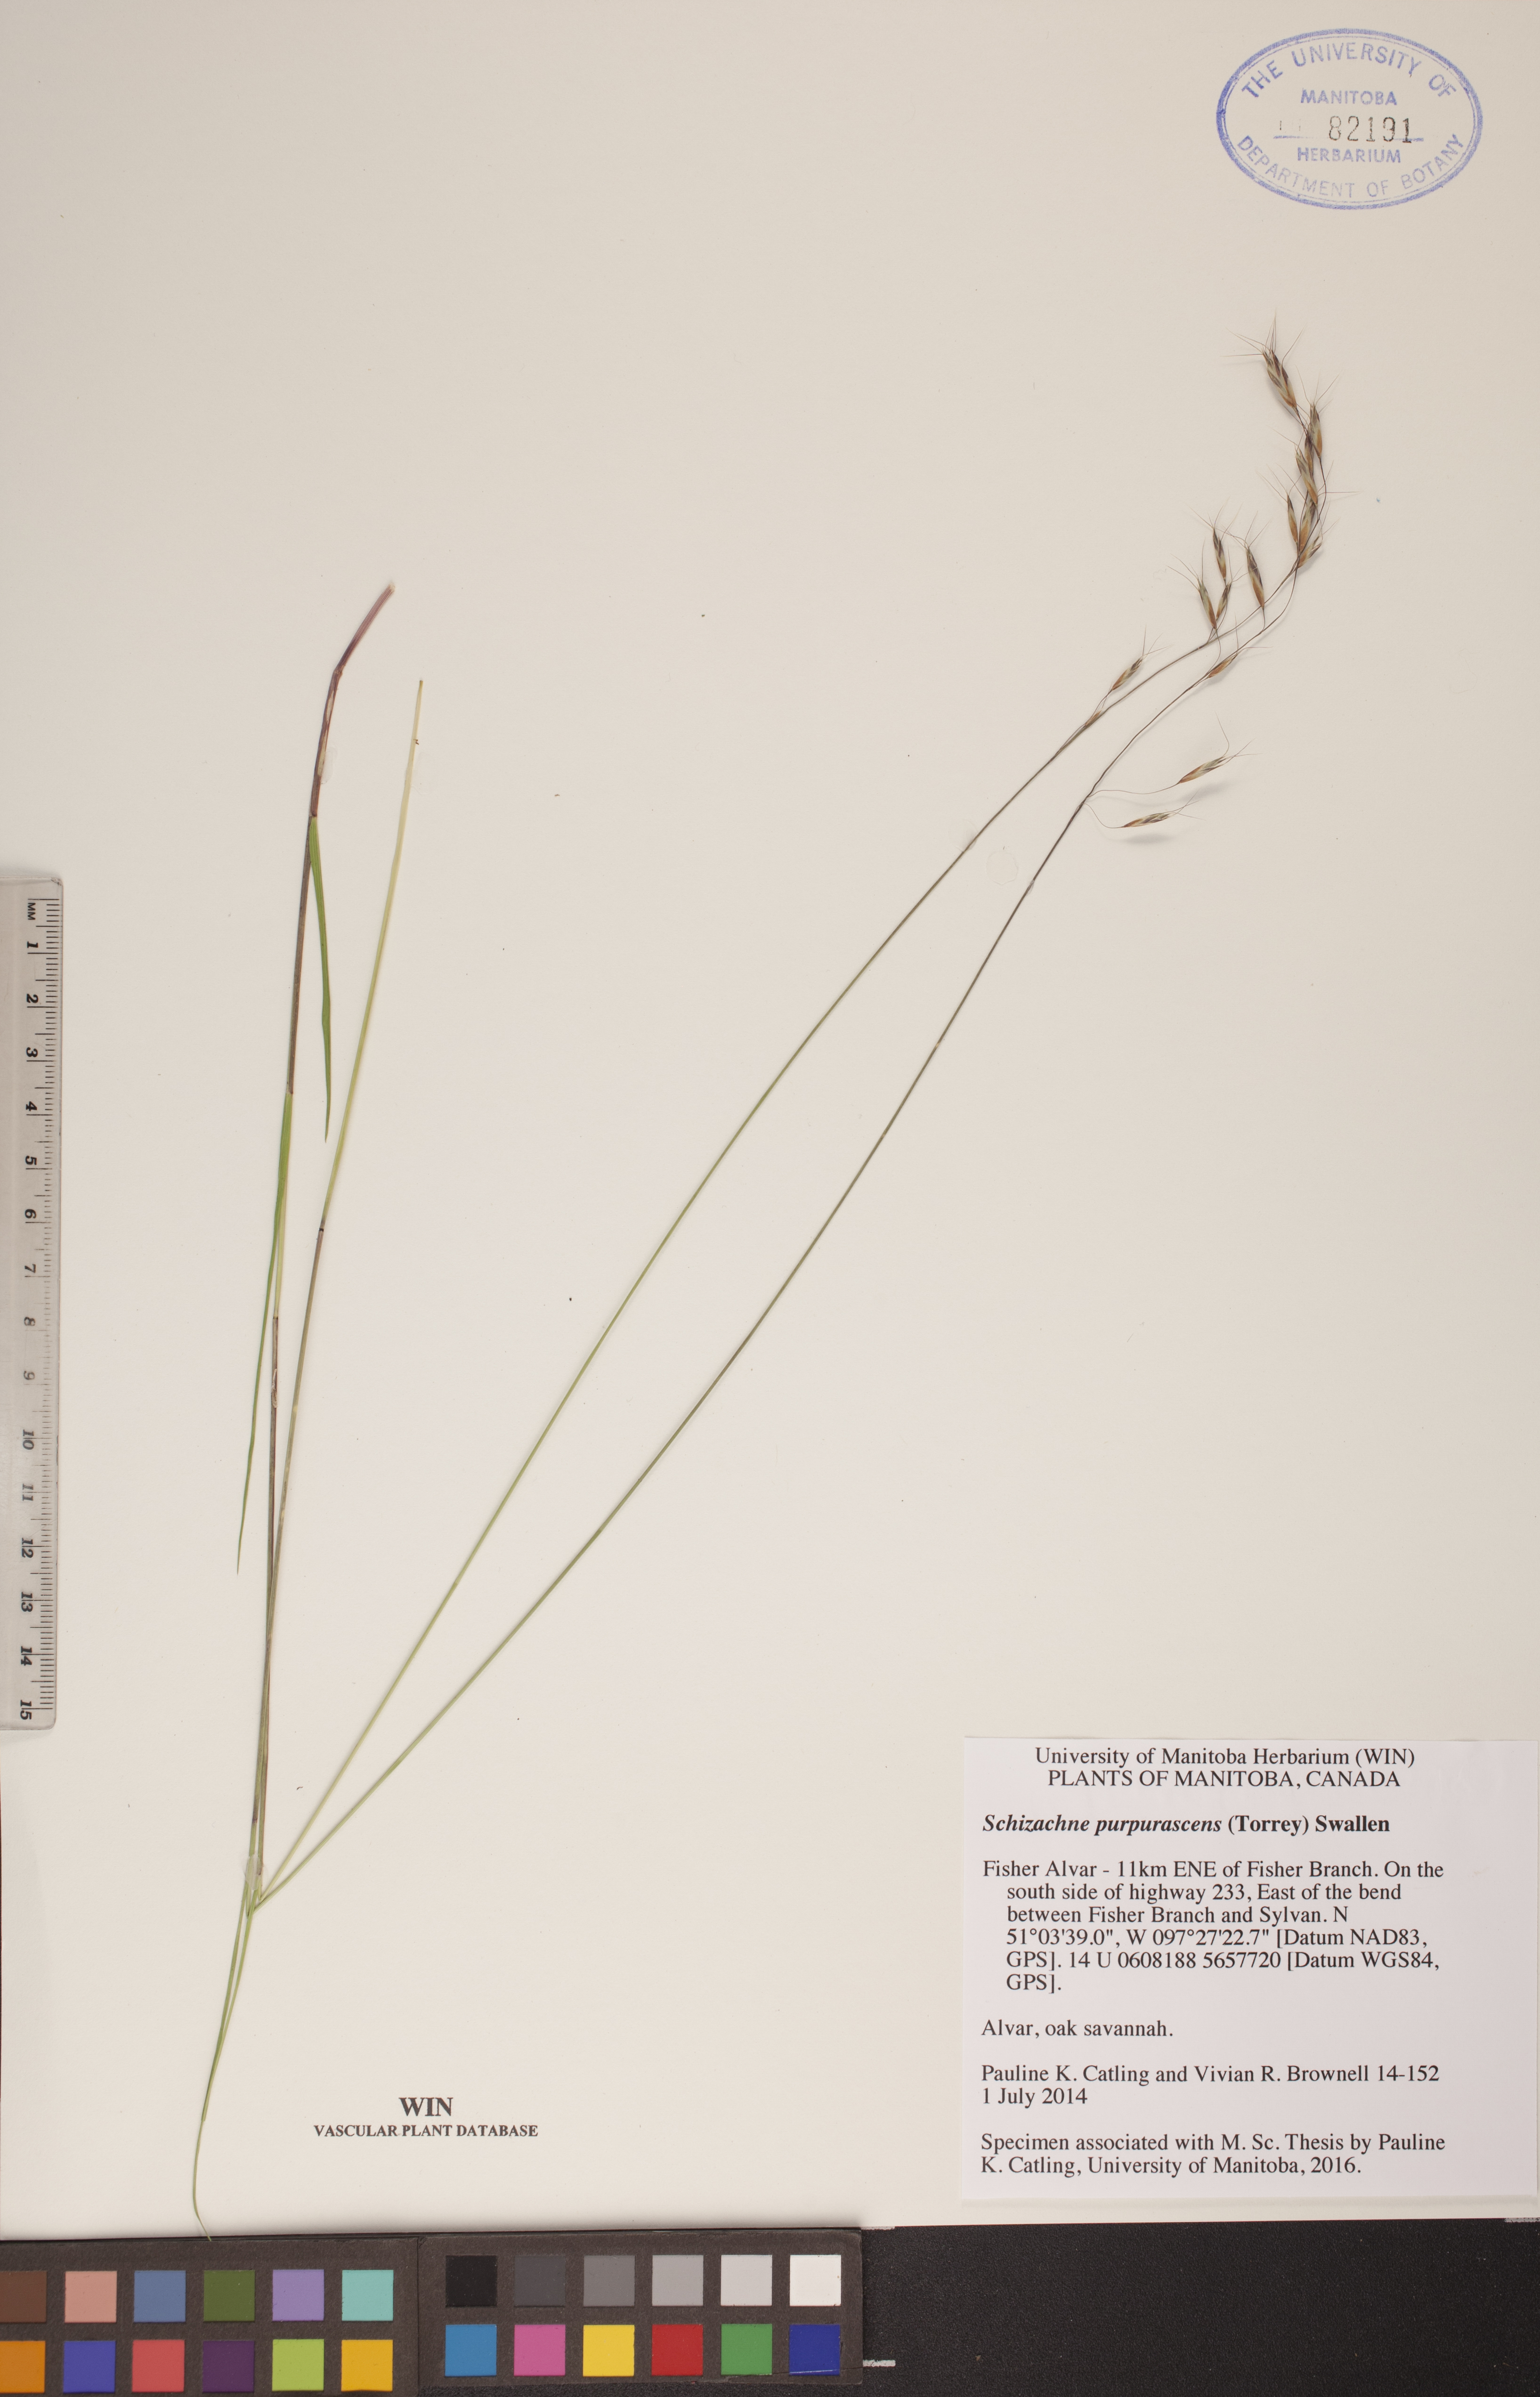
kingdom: Plantae
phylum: Tracheophyta
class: Liliopsida
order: Poales
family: Poaceae
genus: Schizachne
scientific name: Schizachne purpurascens
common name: False melic
